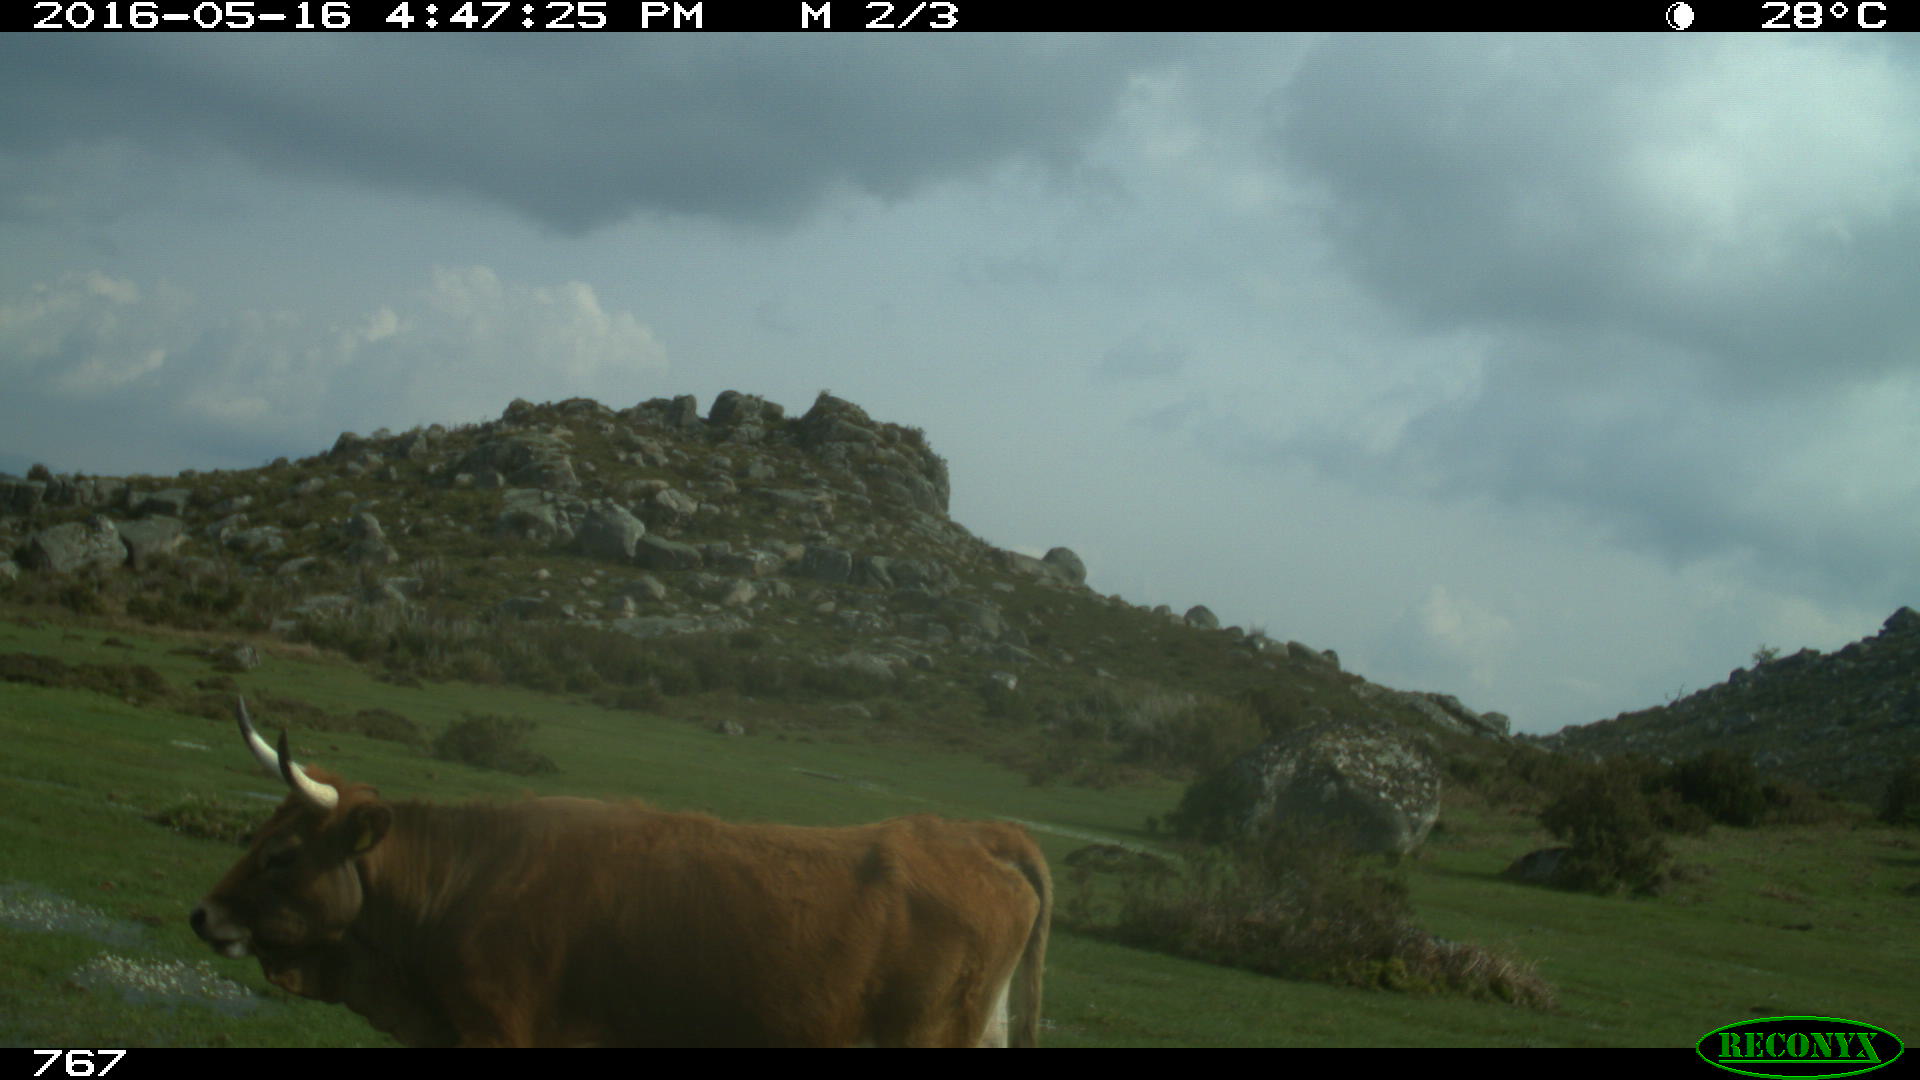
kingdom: Animalia
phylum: Chordata
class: Mammalia
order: Artiodactyla
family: Bovidae
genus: Bos
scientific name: Bos taurus
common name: Domesticated cattle
